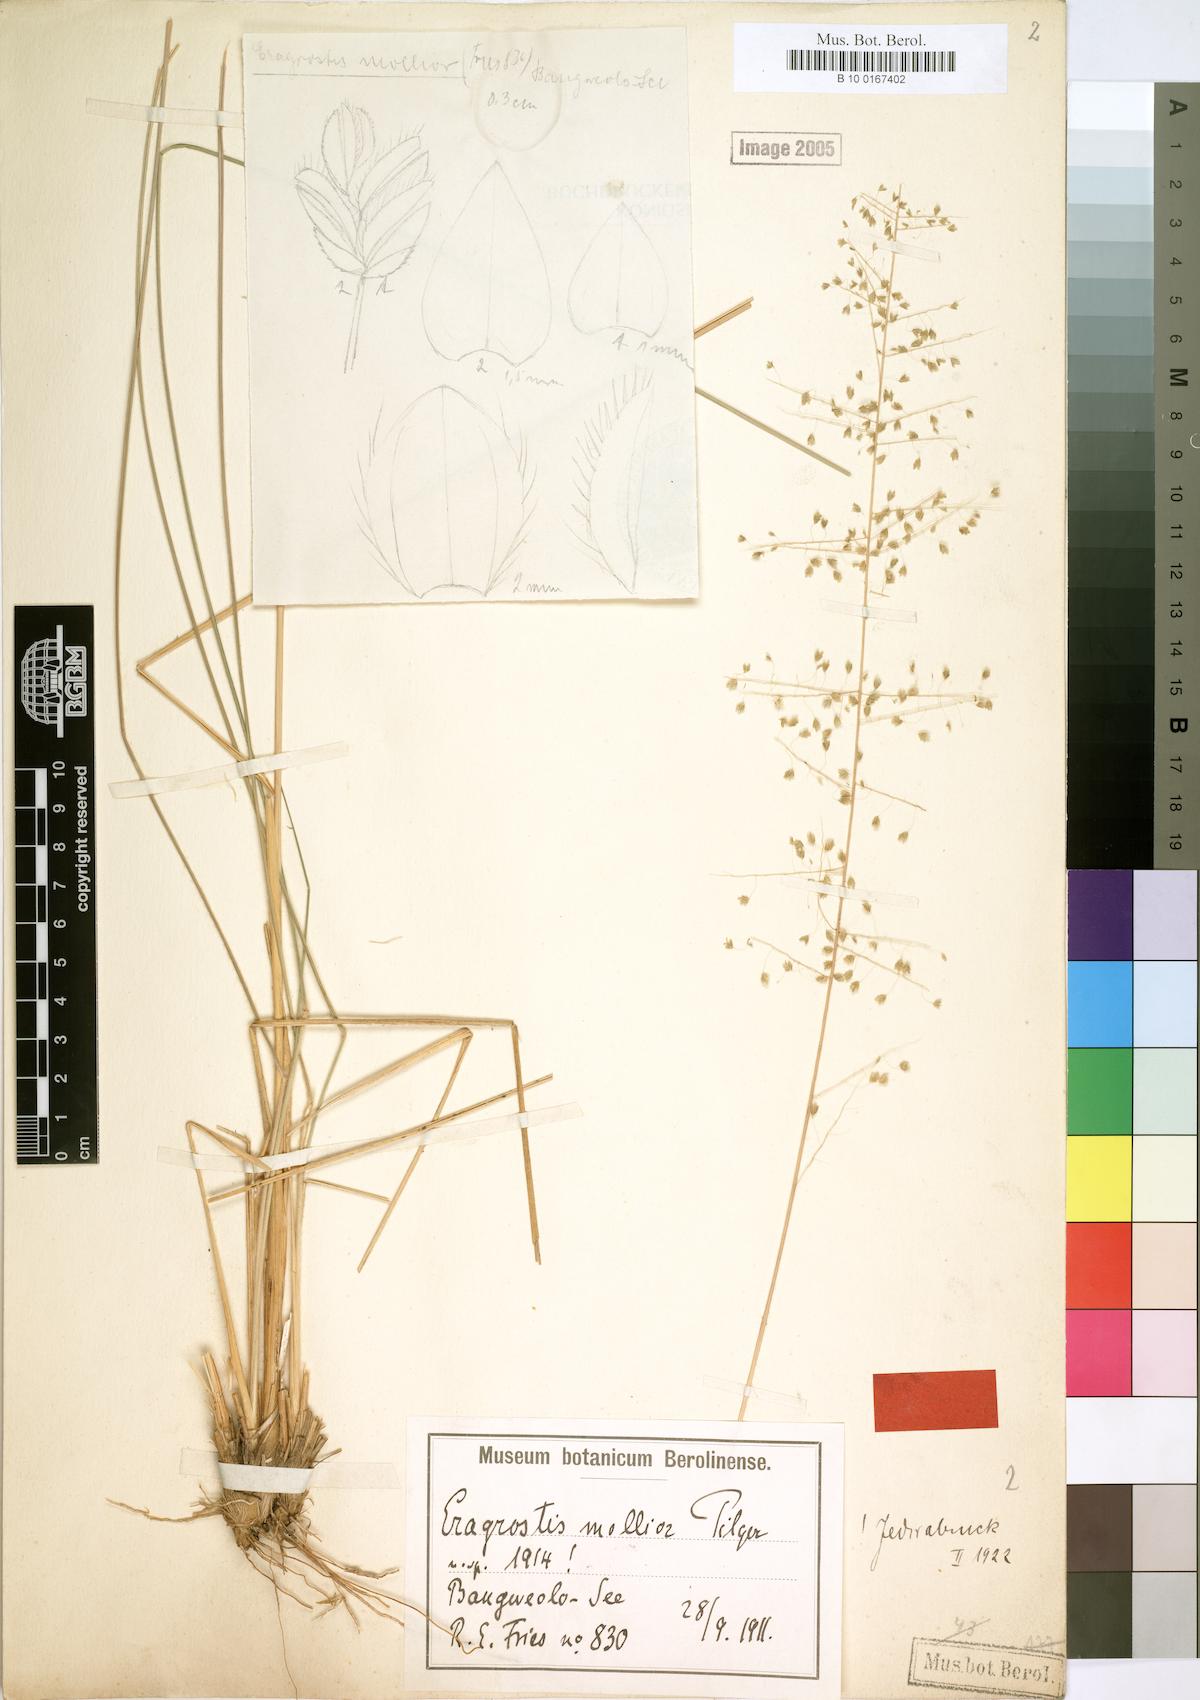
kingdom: Plantae
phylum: Tracheophyta
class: Liliopsida
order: Poales
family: Poaceae
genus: Eragrostis
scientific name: Eragrostis mollior
